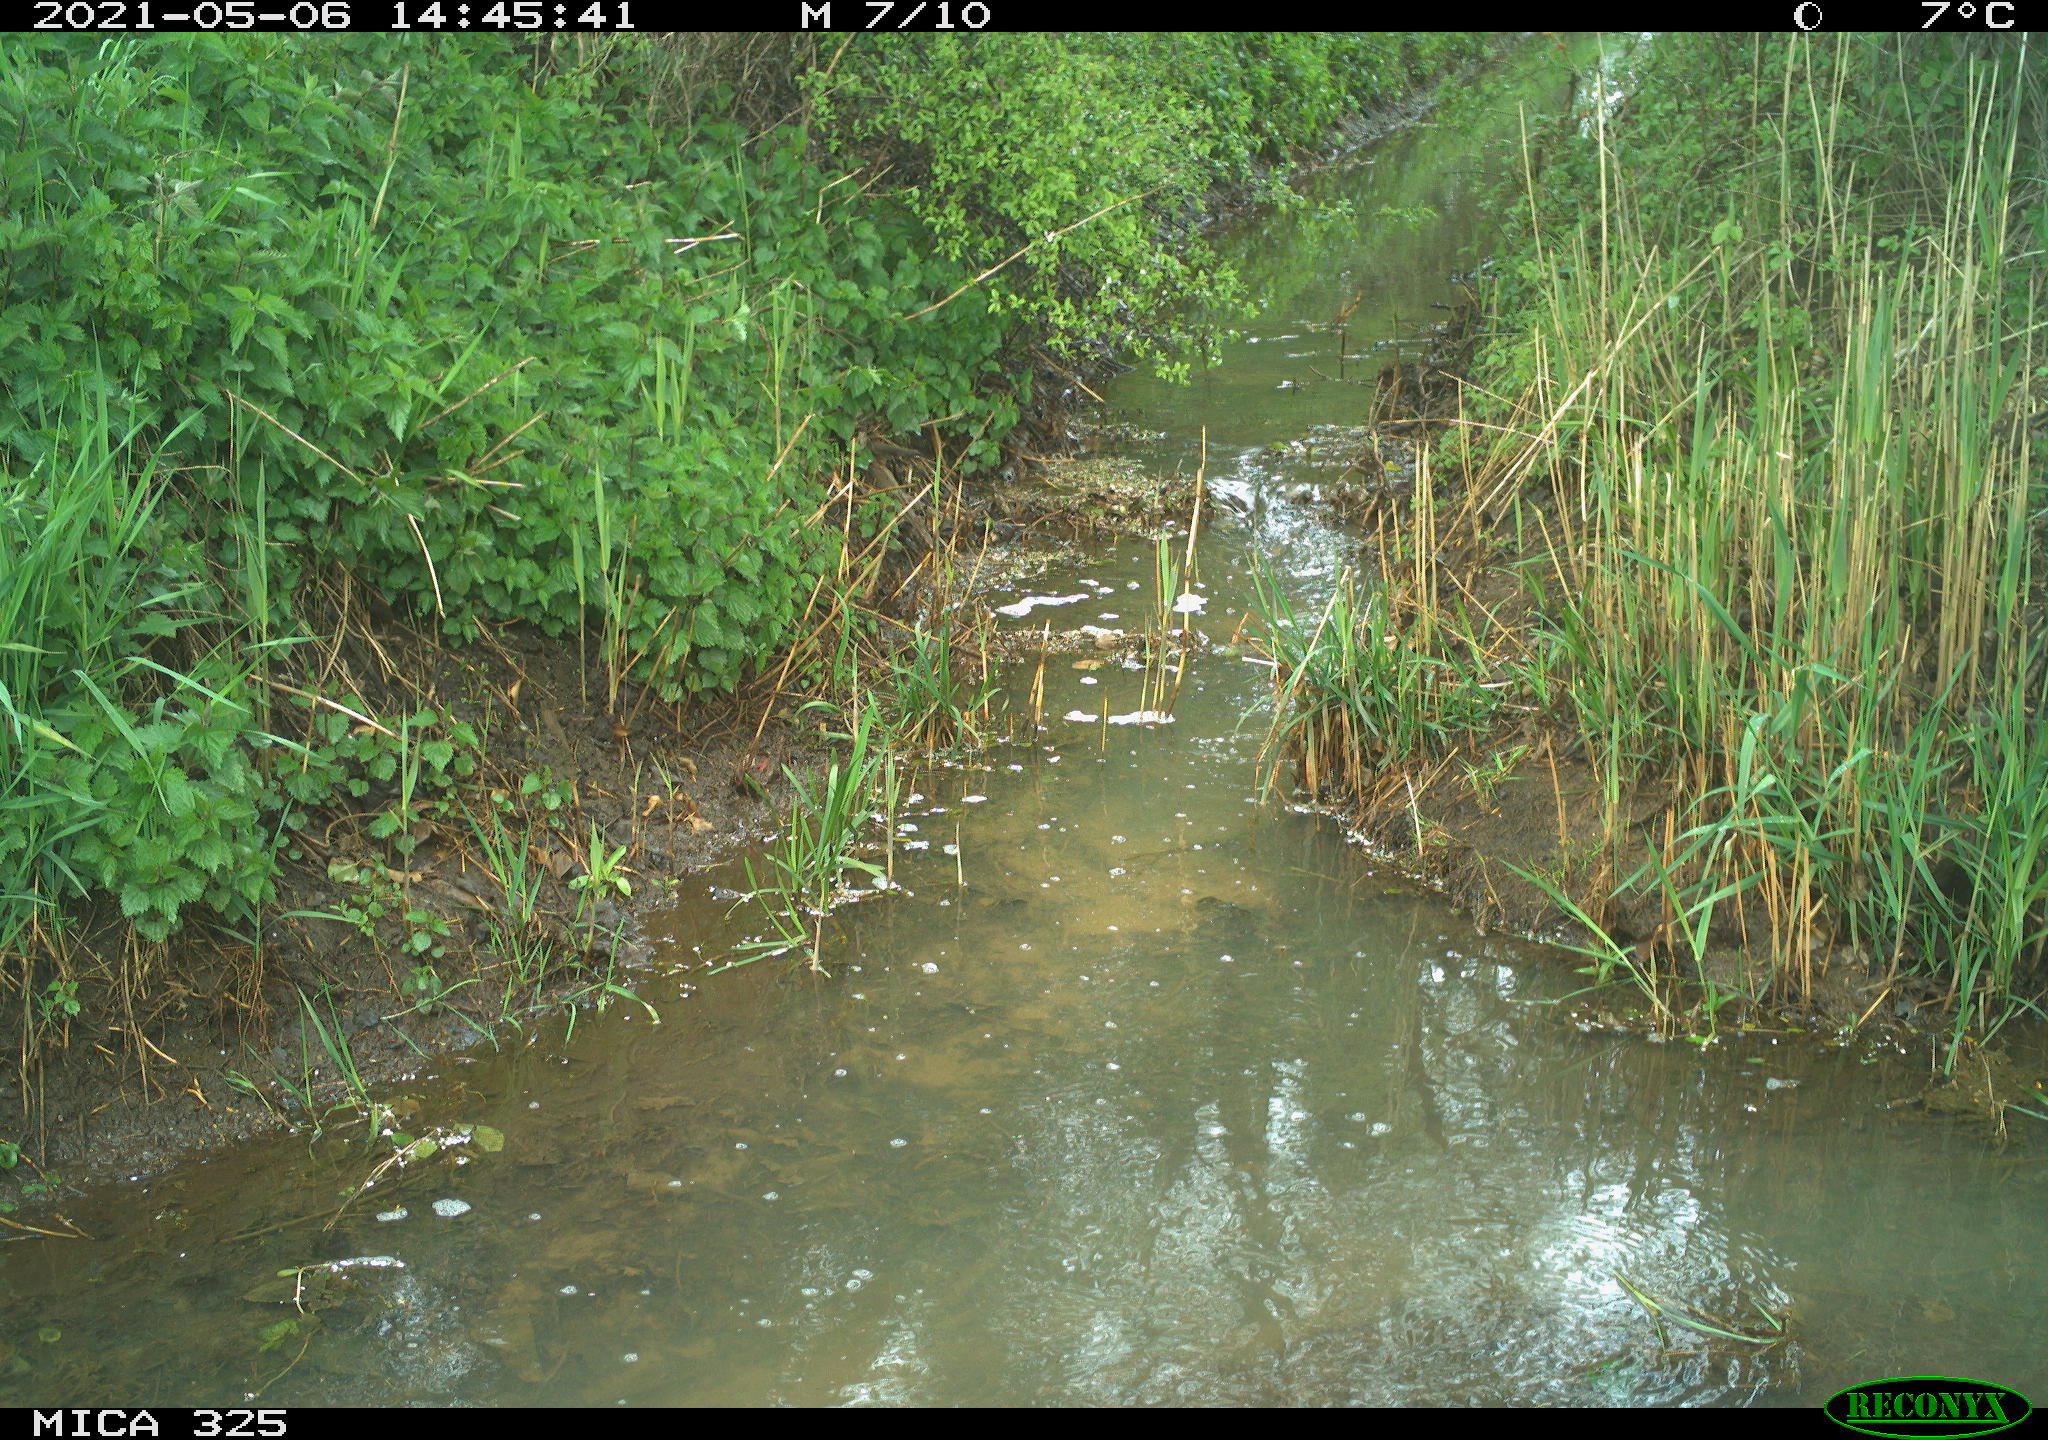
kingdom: Animalia
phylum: Chordata
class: Mammalia
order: Carnivora
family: Mustelidae
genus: Mustela
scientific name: Mustela erminea
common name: Stoat
